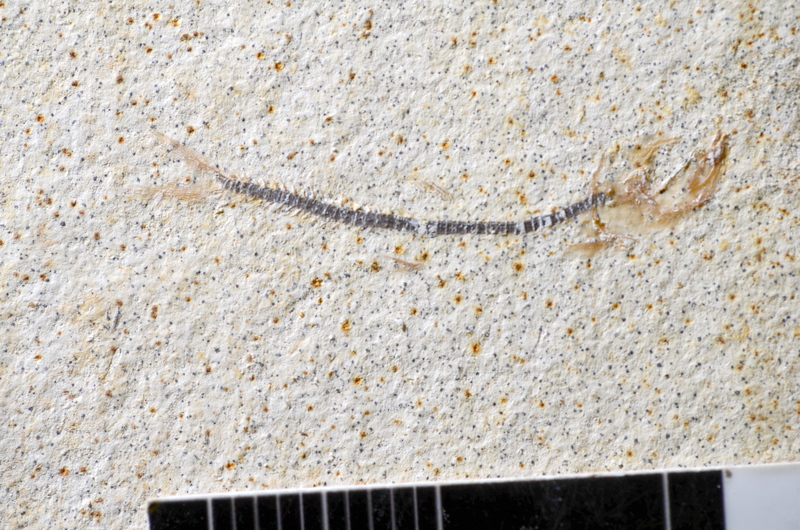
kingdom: Animalia
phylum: Chordata
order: Salmoniformes
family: Orthogonikleithridae
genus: Orthogonikleithrus
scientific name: Orthogonikleithrus hoelli
